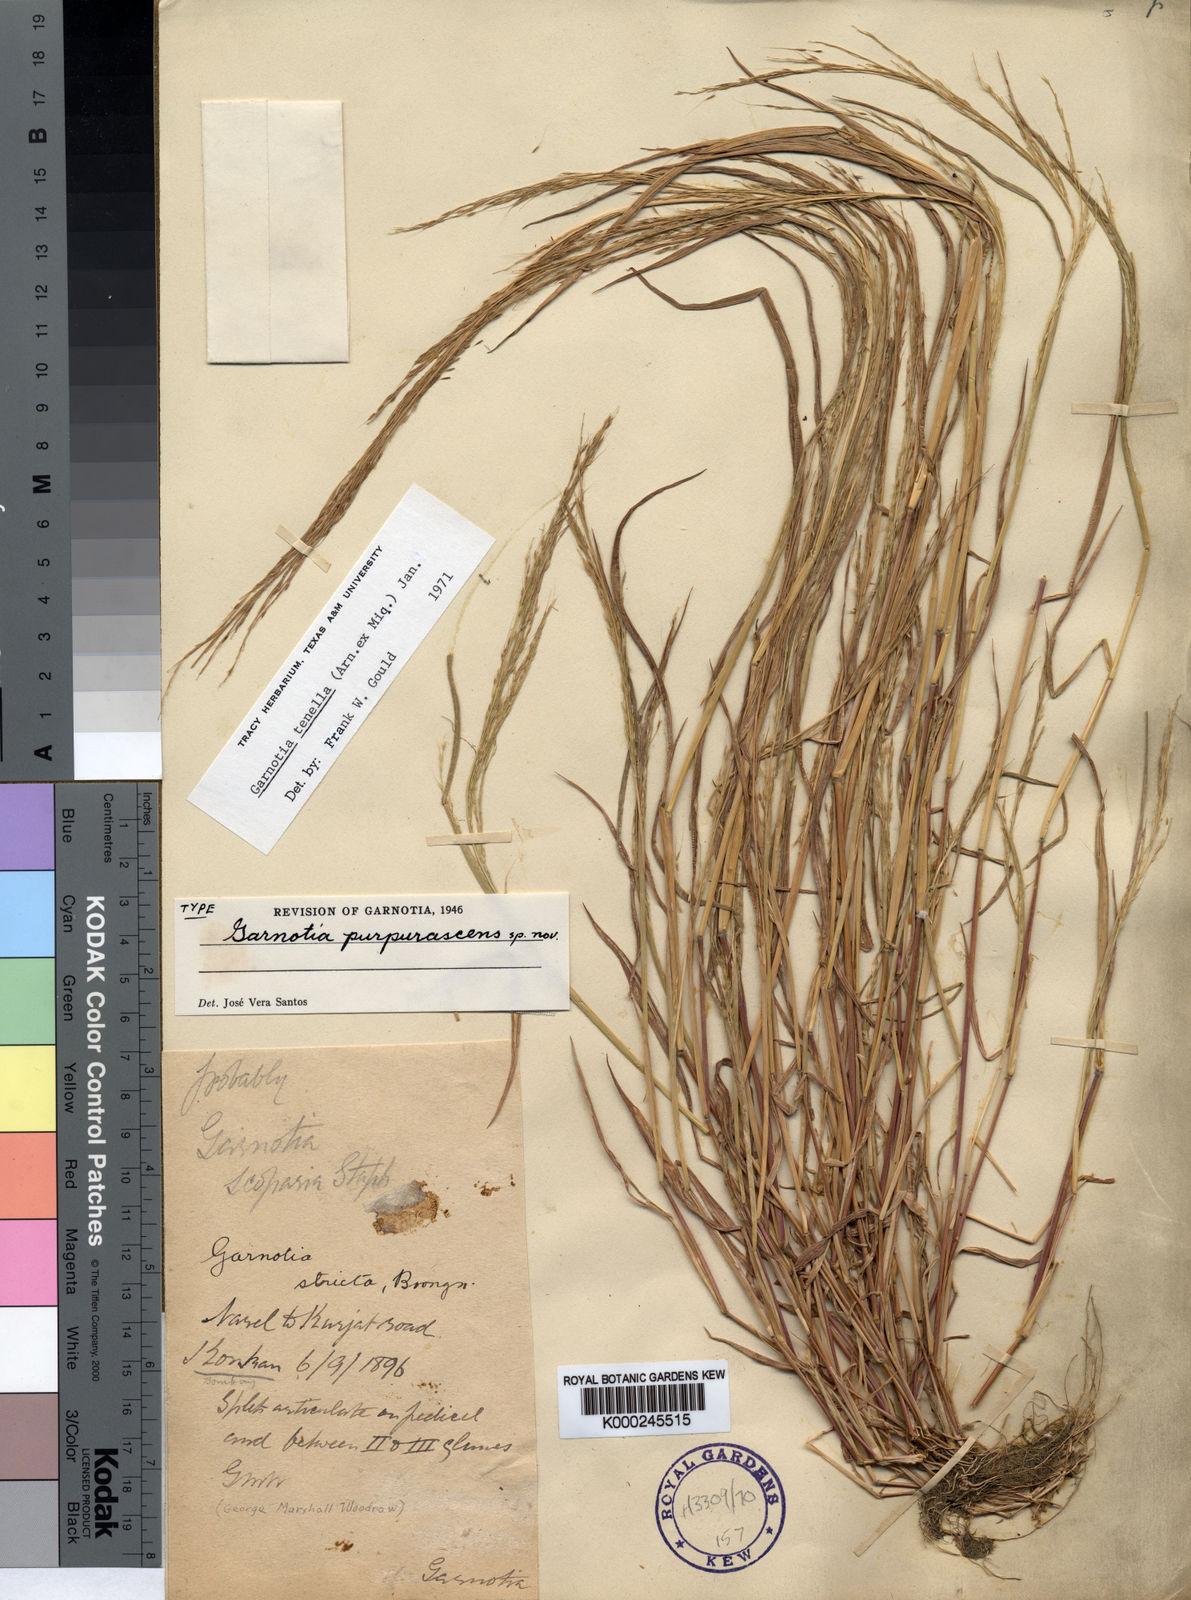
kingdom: Plantae
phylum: Tracheophyta
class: Liliopsida
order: Poales
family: Poaceae
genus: Garnotia
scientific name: Garnotia tenella
